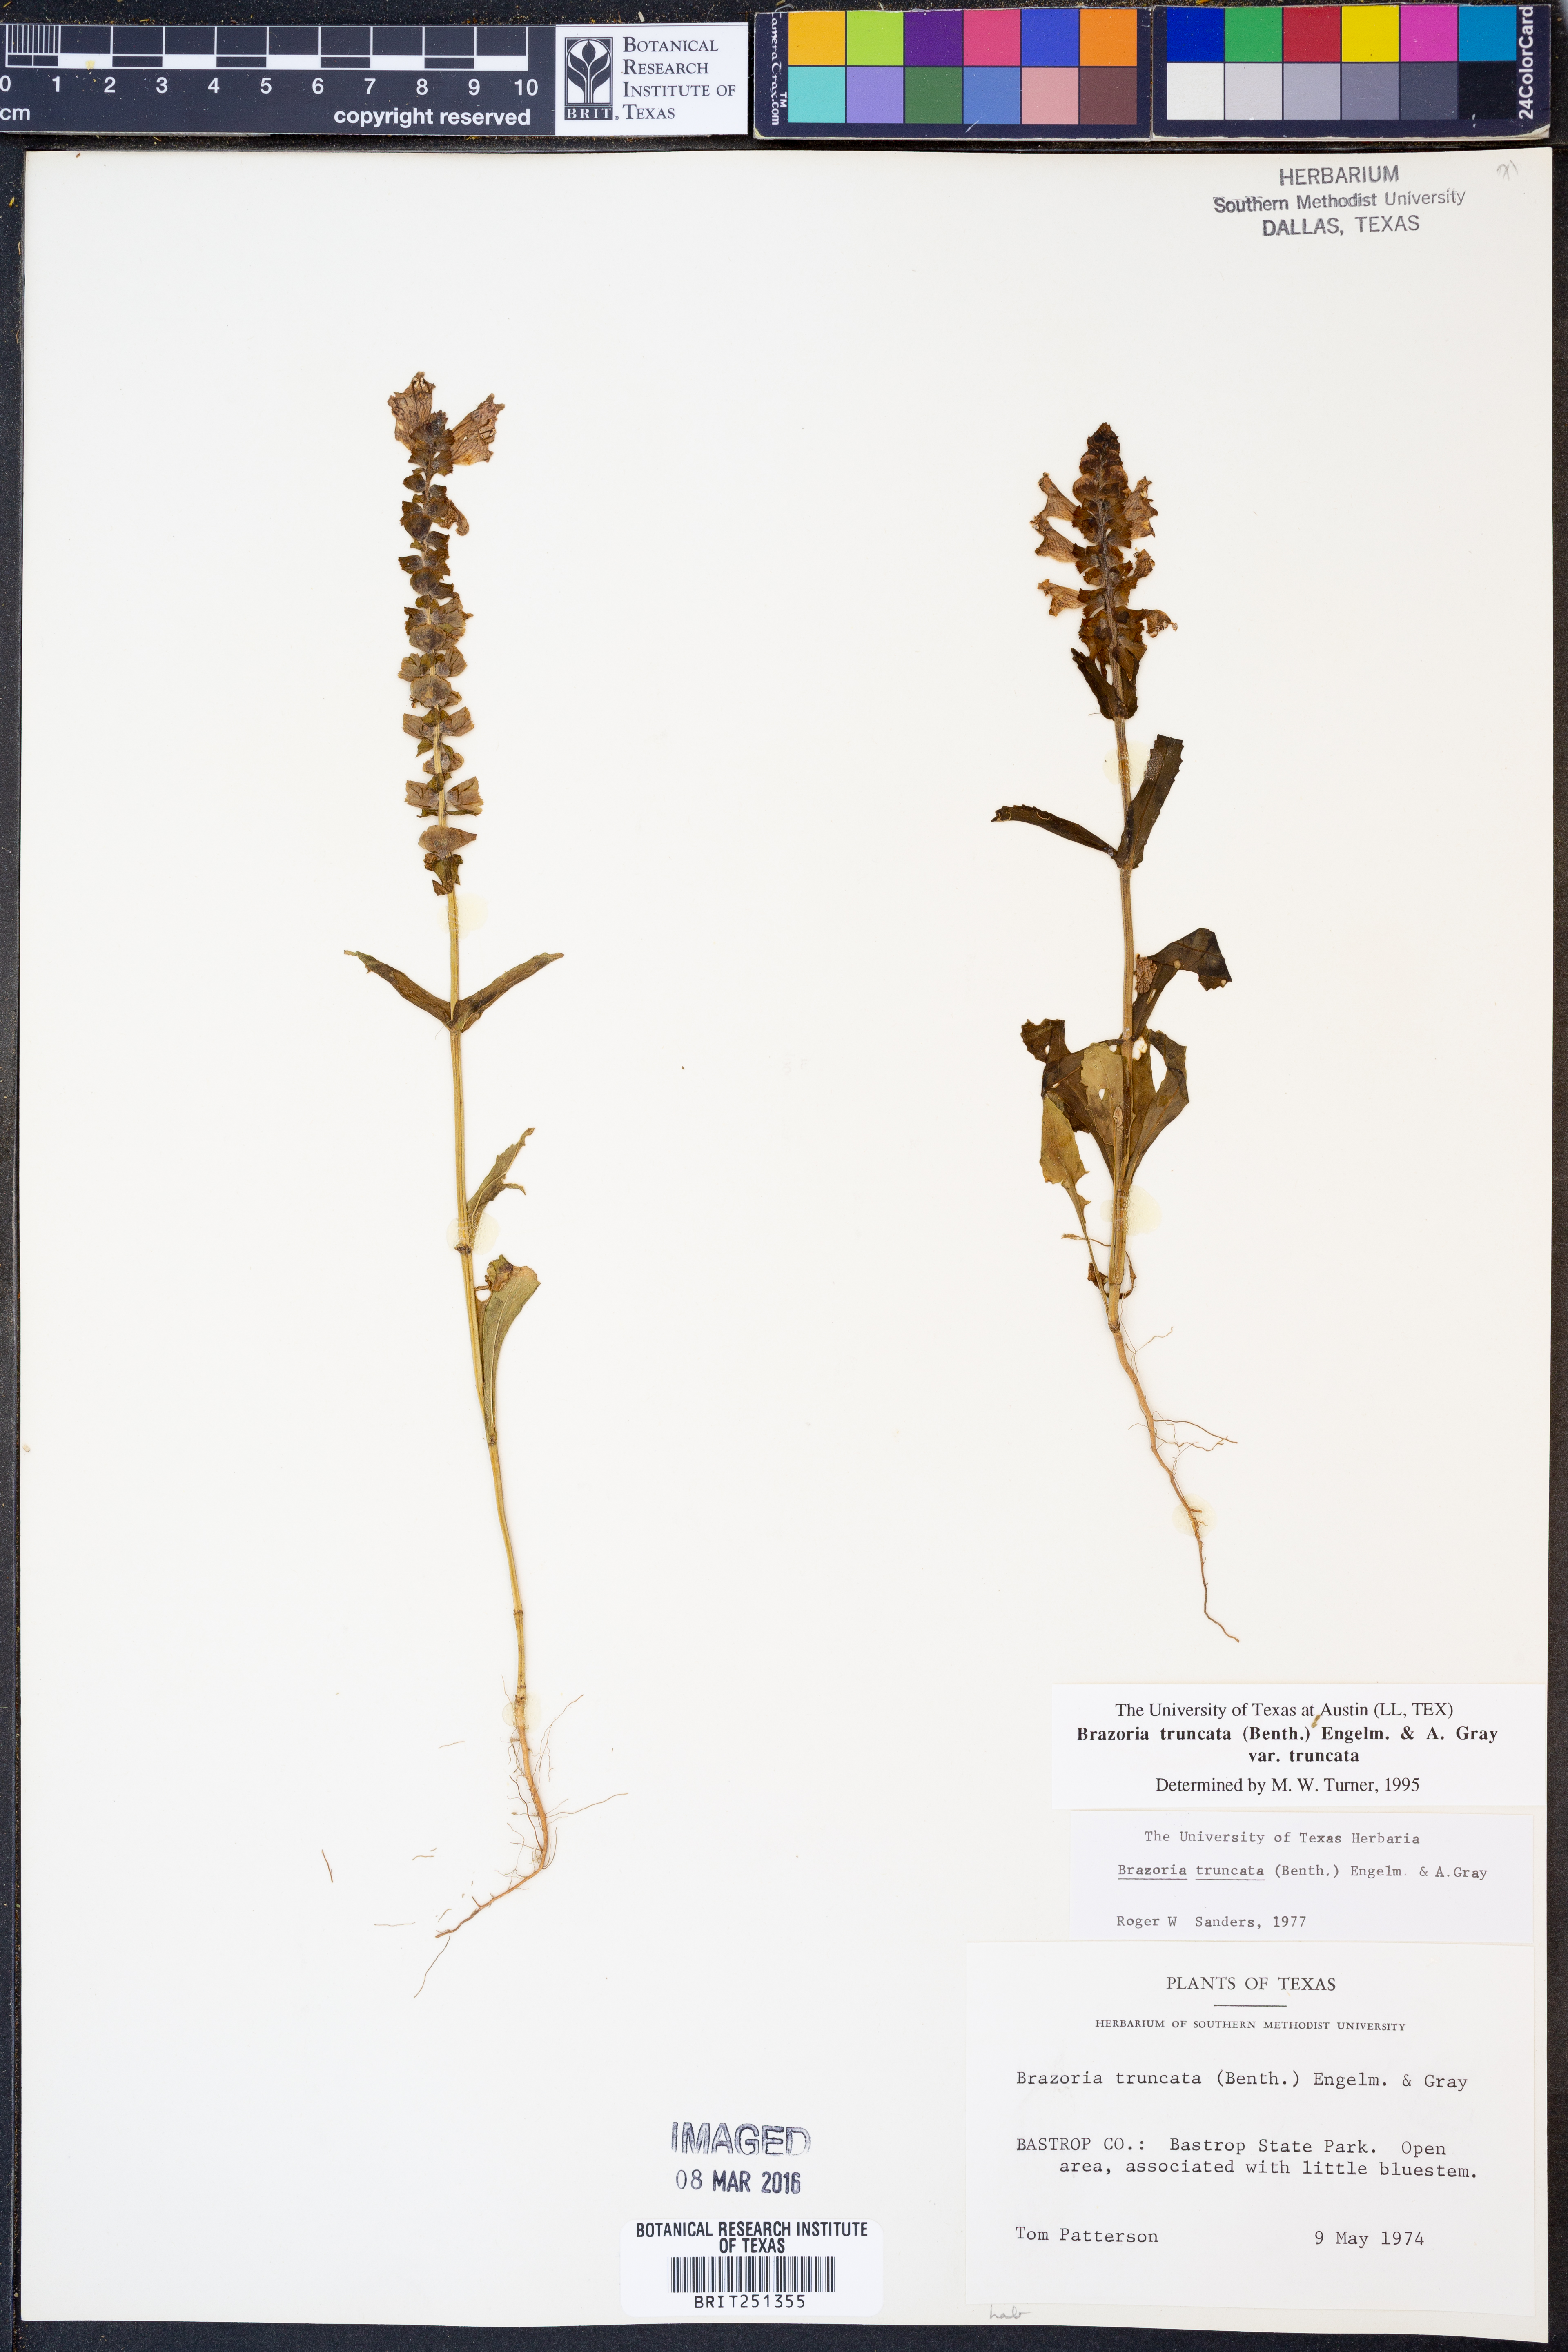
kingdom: Plantae
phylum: Tracheophyta
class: Magnoliopsida
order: Lamiales
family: Lamiaceae
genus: Brazoria
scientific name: Brazoria truncata
